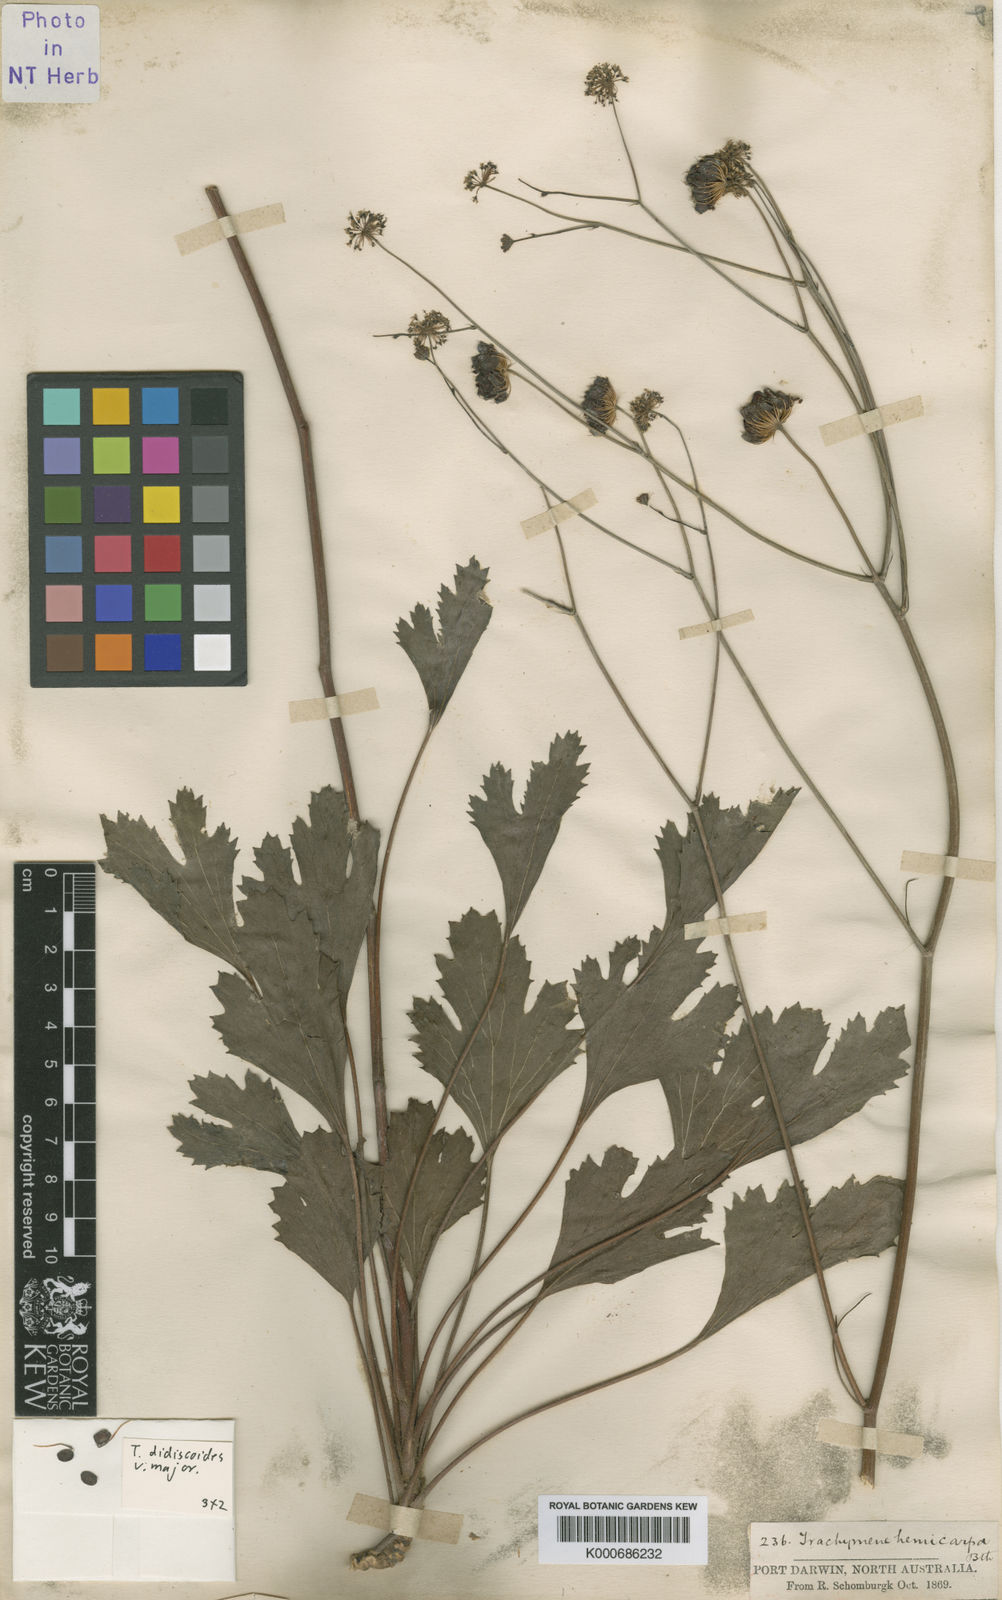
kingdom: Plantae
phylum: Tracheophyta
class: Magnoliopsida
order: Apiales
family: Araliaceae
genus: Trachymene
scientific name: Trachymene didiscoides
